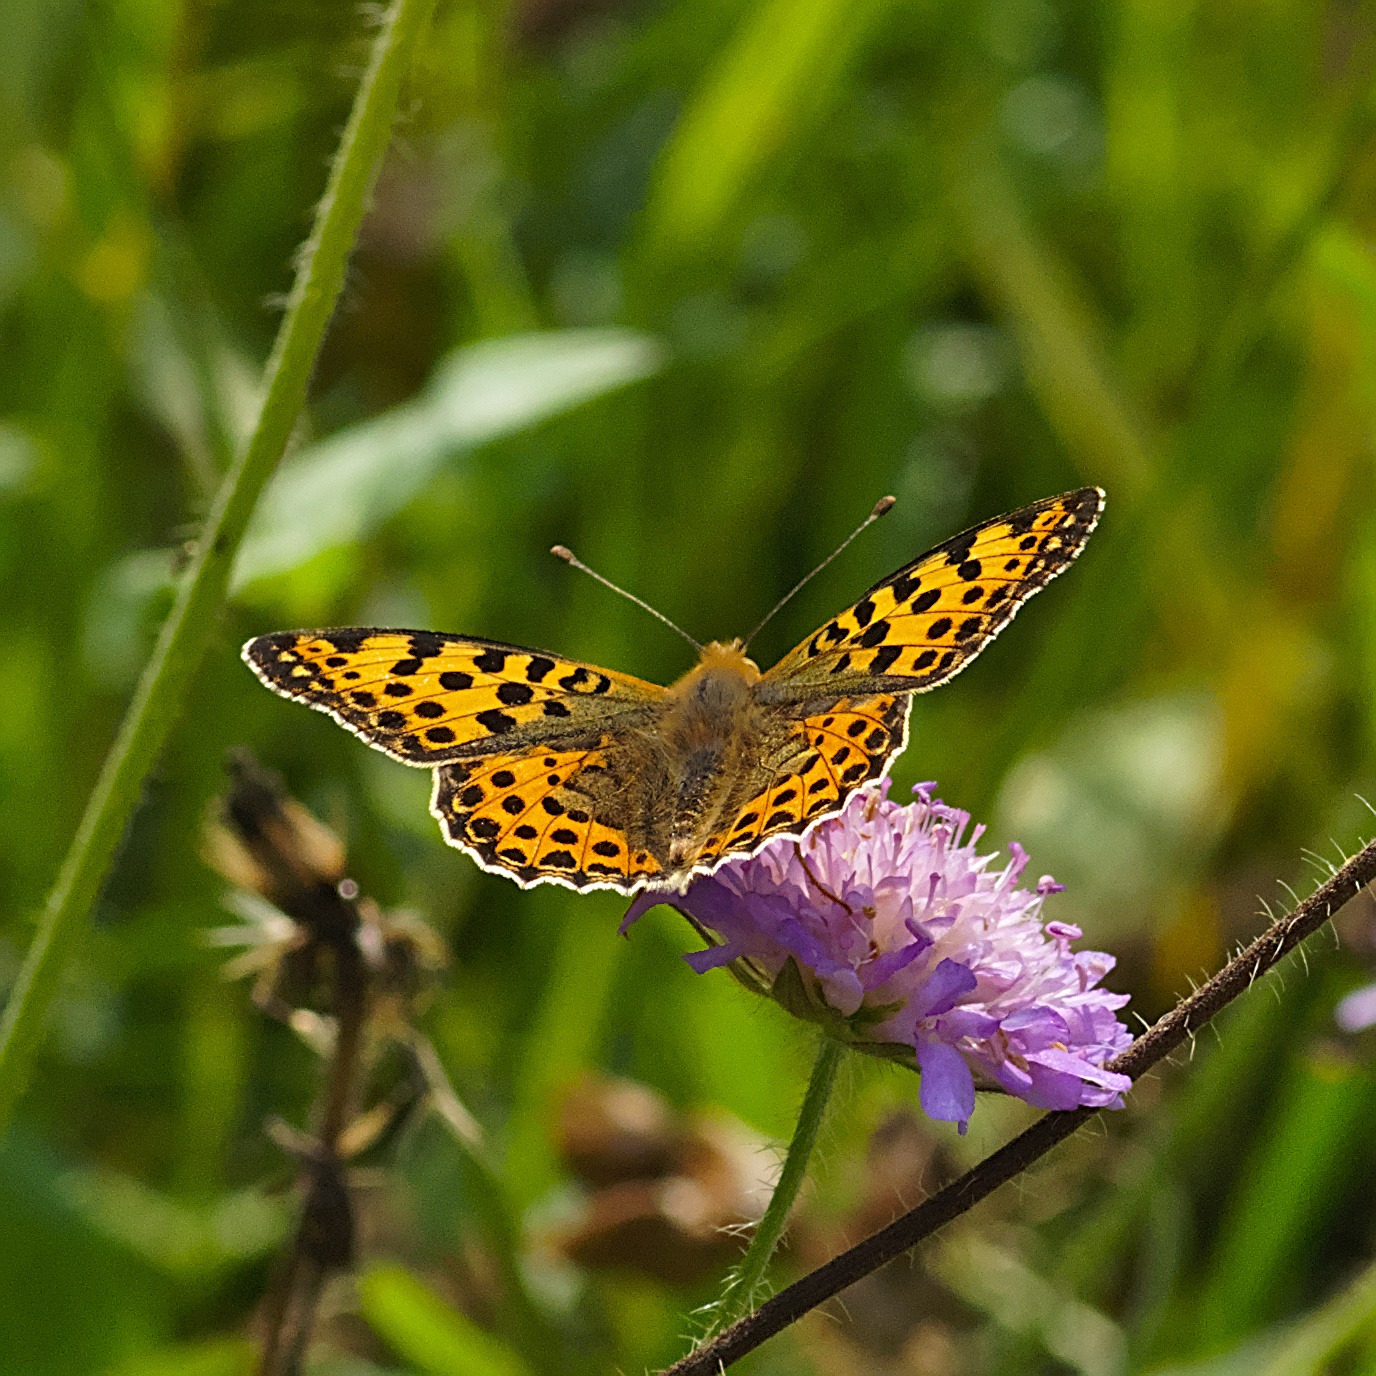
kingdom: Animalia
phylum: Arthropoda
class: Insecta
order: Lepidoptera
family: Nymphalidae
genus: Issoria
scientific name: Issoria lathonia
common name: Storplettet perlemorsommerfugl
